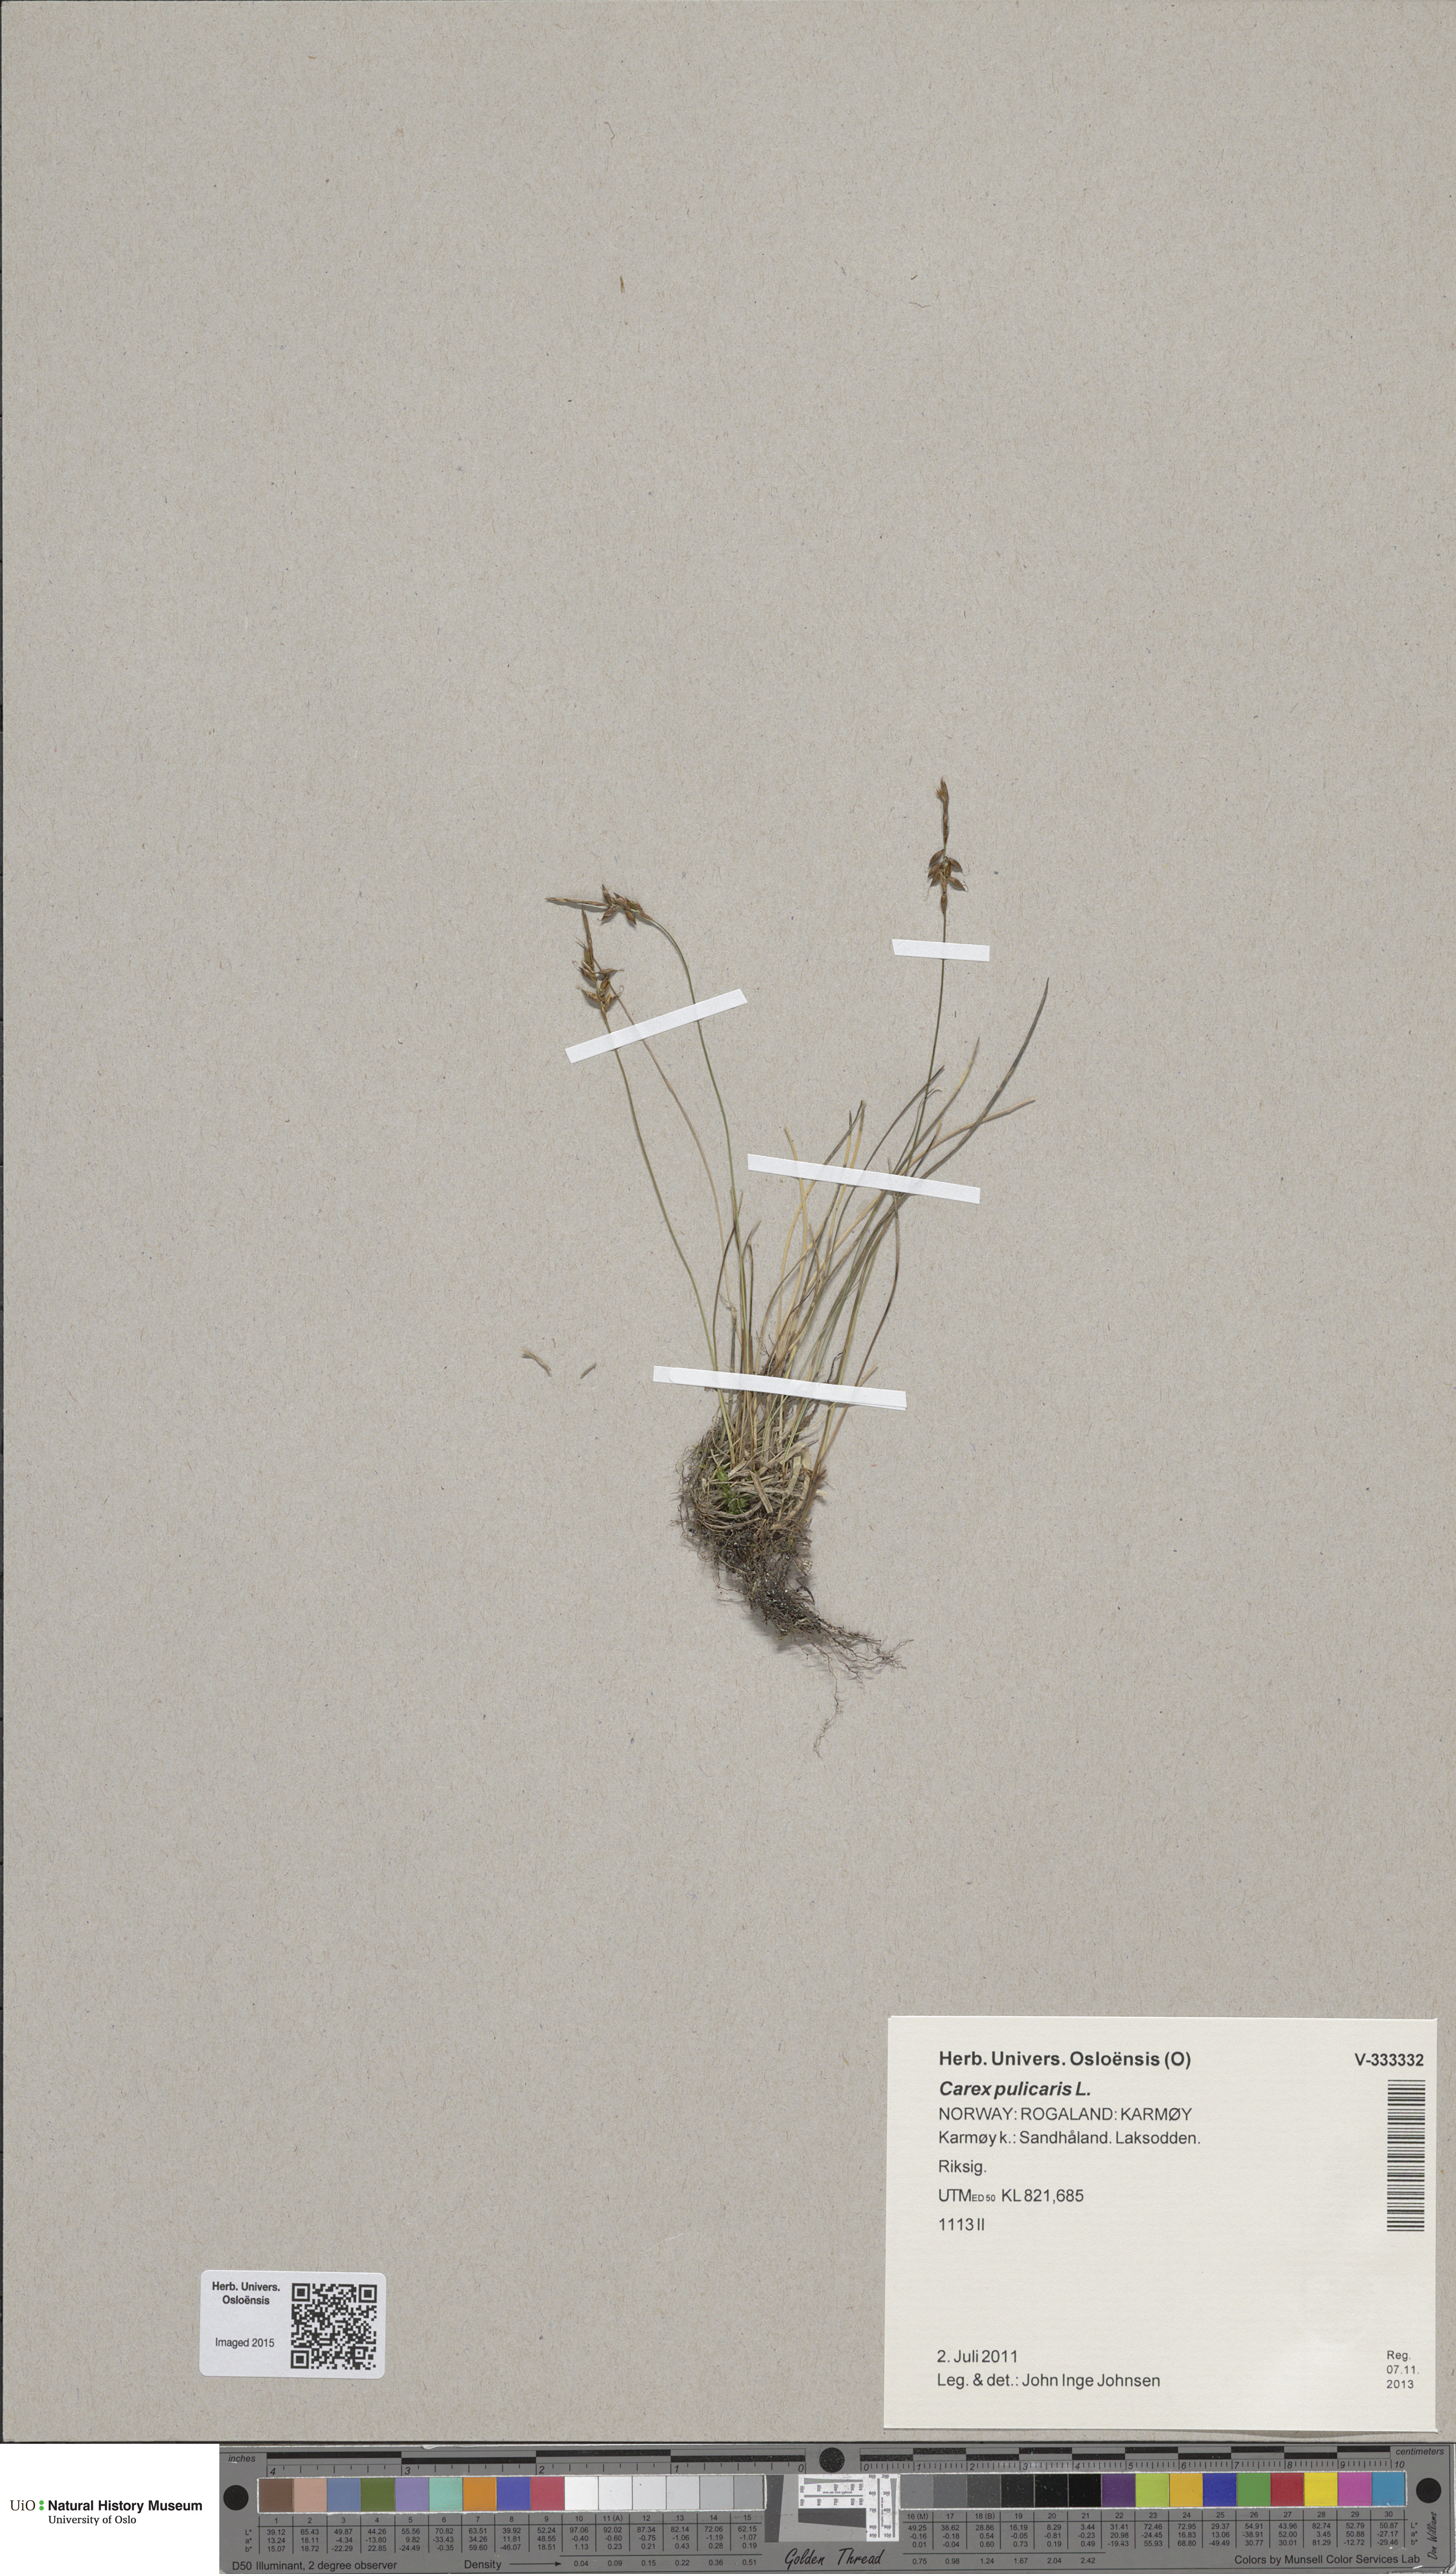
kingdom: Plantae
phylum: Tracheophyta
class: Liliopsida
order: Poales
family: Cyperaceae
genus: Carex
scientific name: Carex pulicaris
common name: Flea sedge
